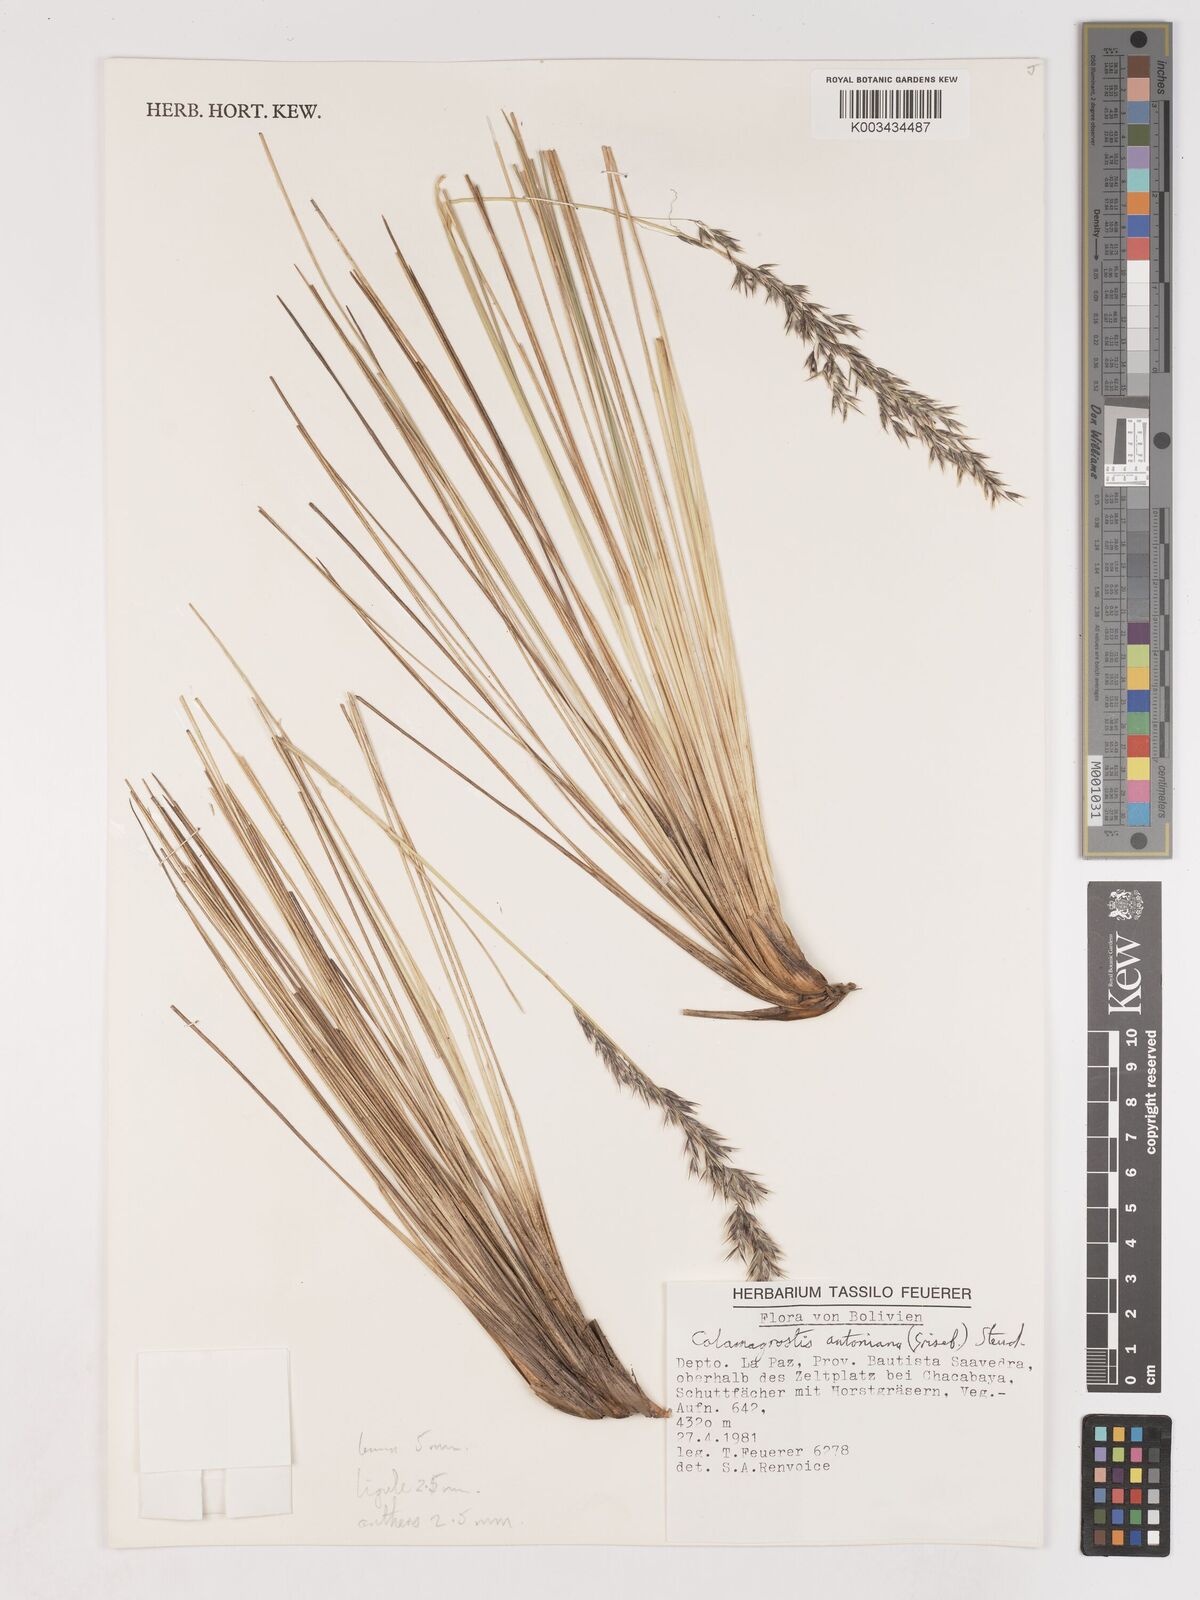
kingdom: Plantae
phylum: Tracheophyta
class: Liliopsida
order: Poales
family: Poaceae
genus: Cinnagrostis
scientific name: Cinnagrostis rigida
